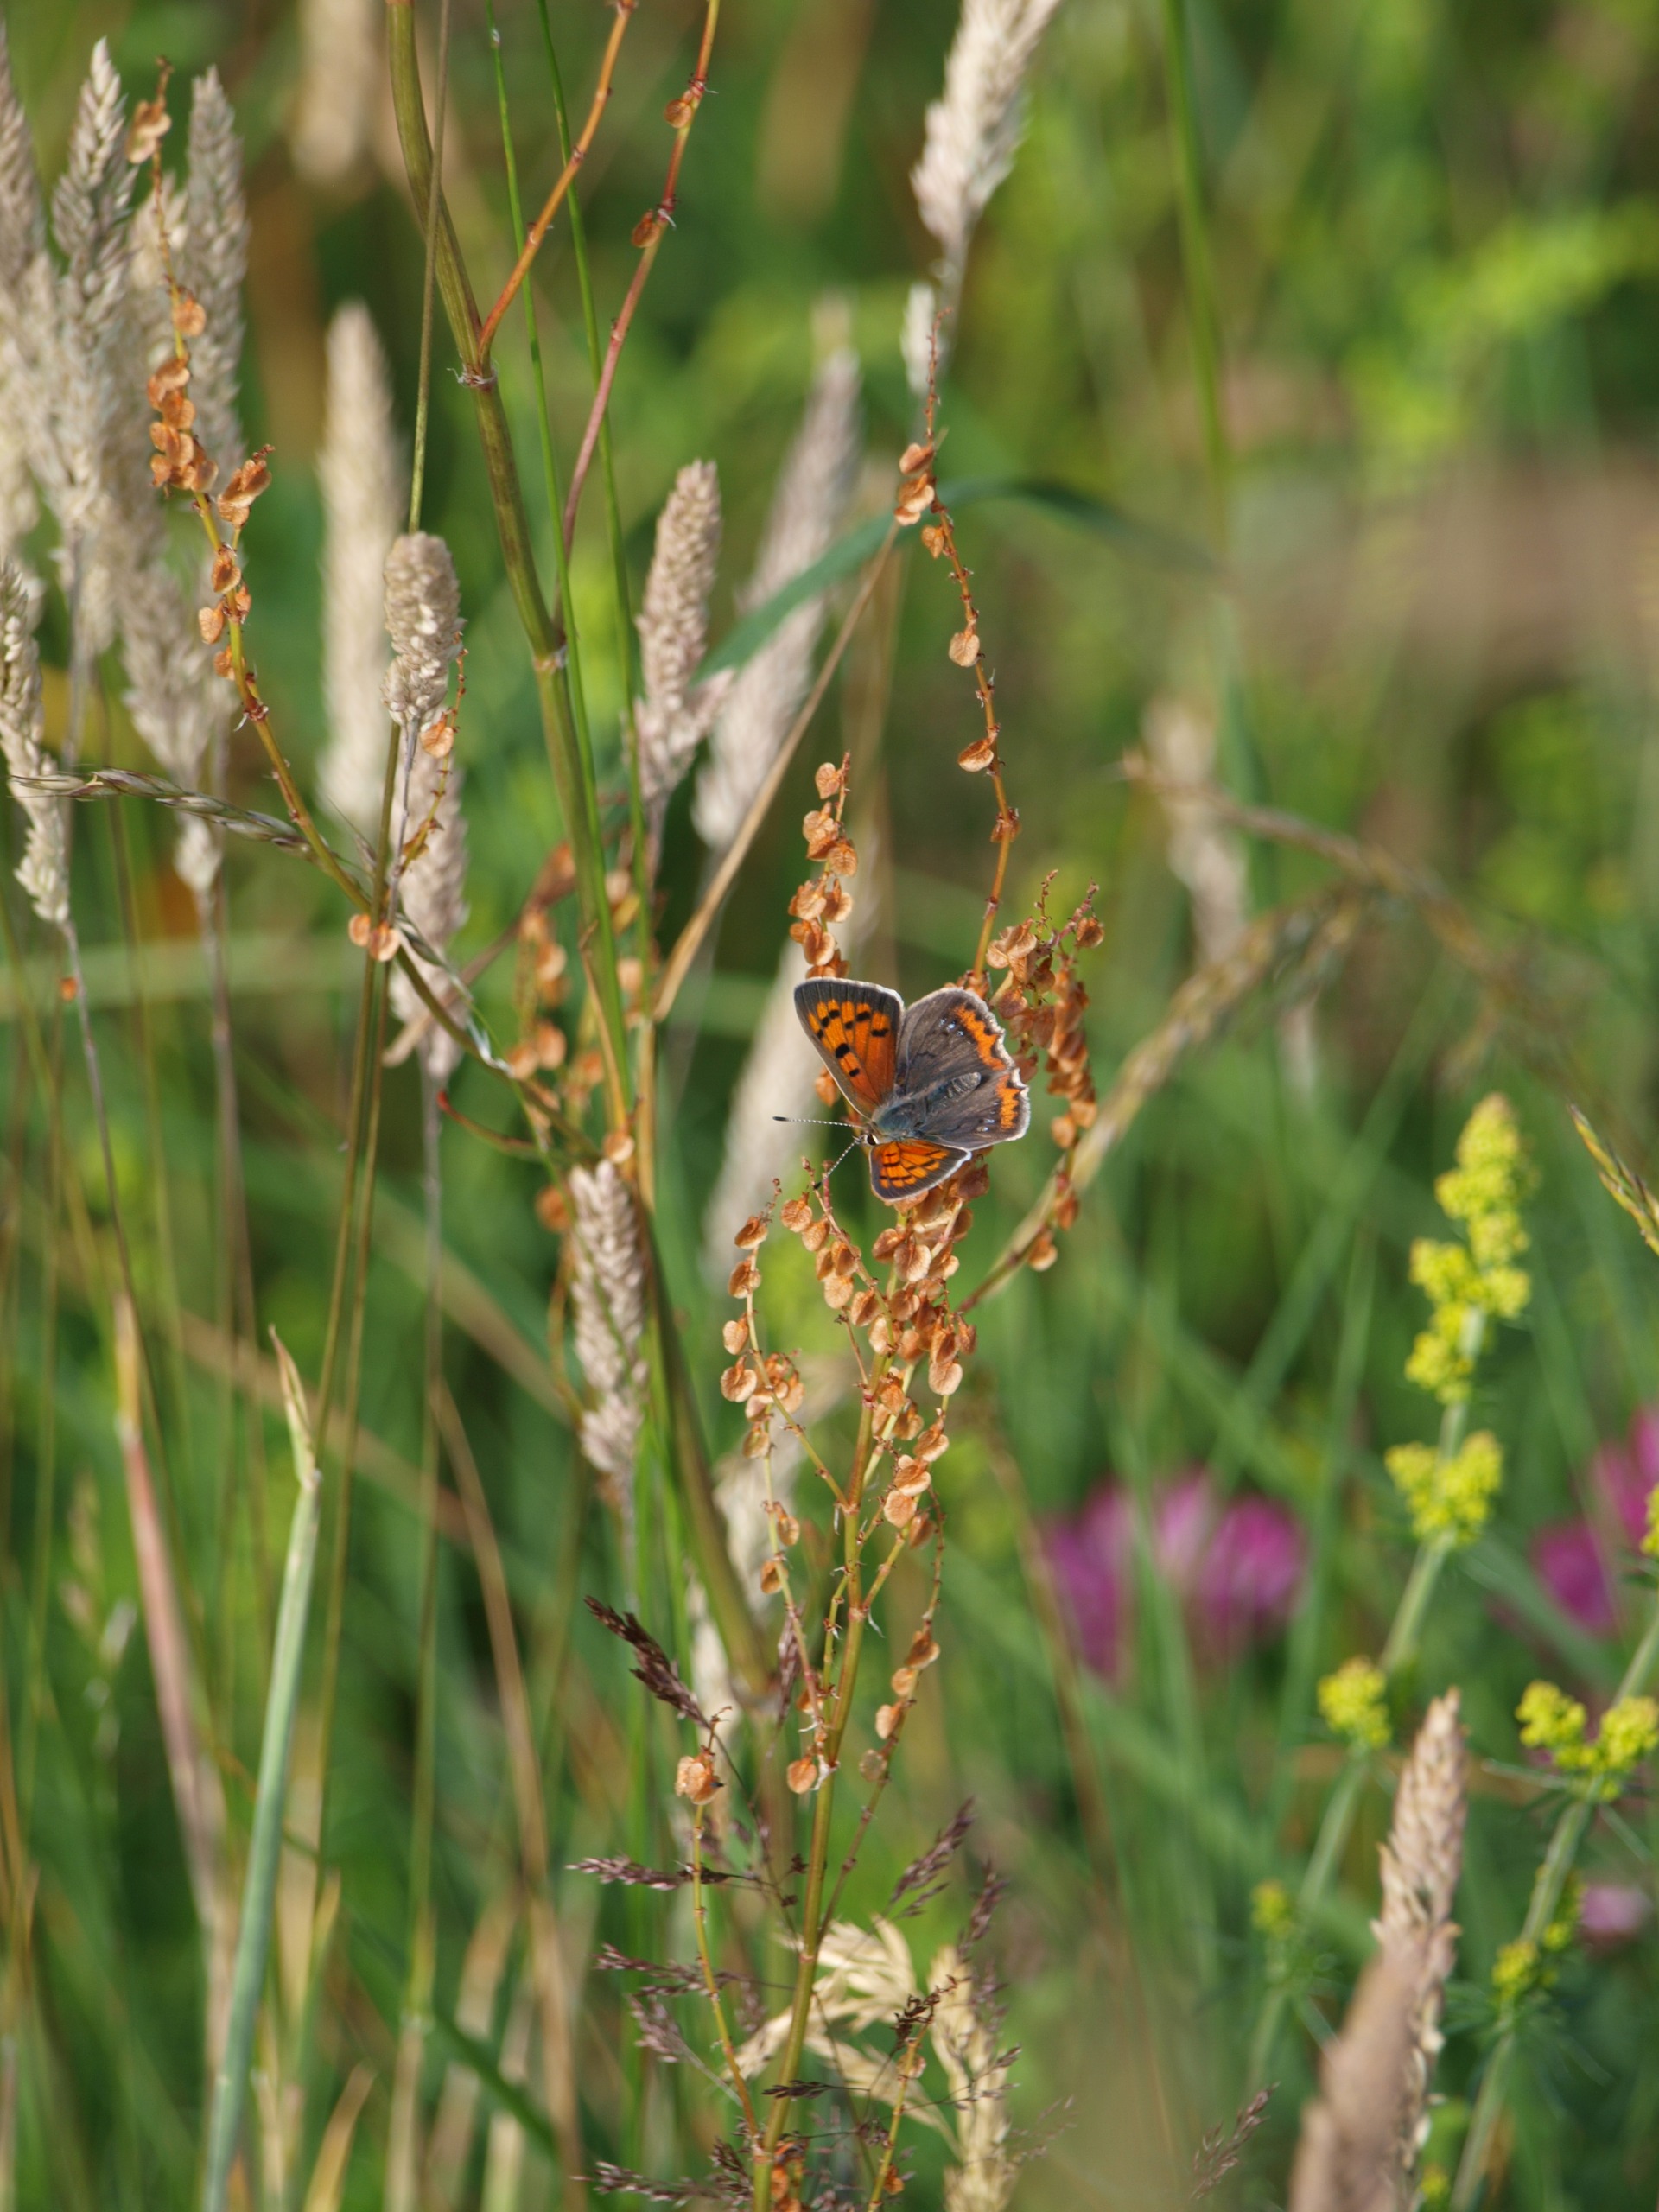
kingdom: Animalia
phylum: Arthropoda
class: Insecta
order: Lepidoptera
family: Lycaenidae
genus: Lycaena
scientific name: Lycaena phlaeas
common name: Lille ildfugl
